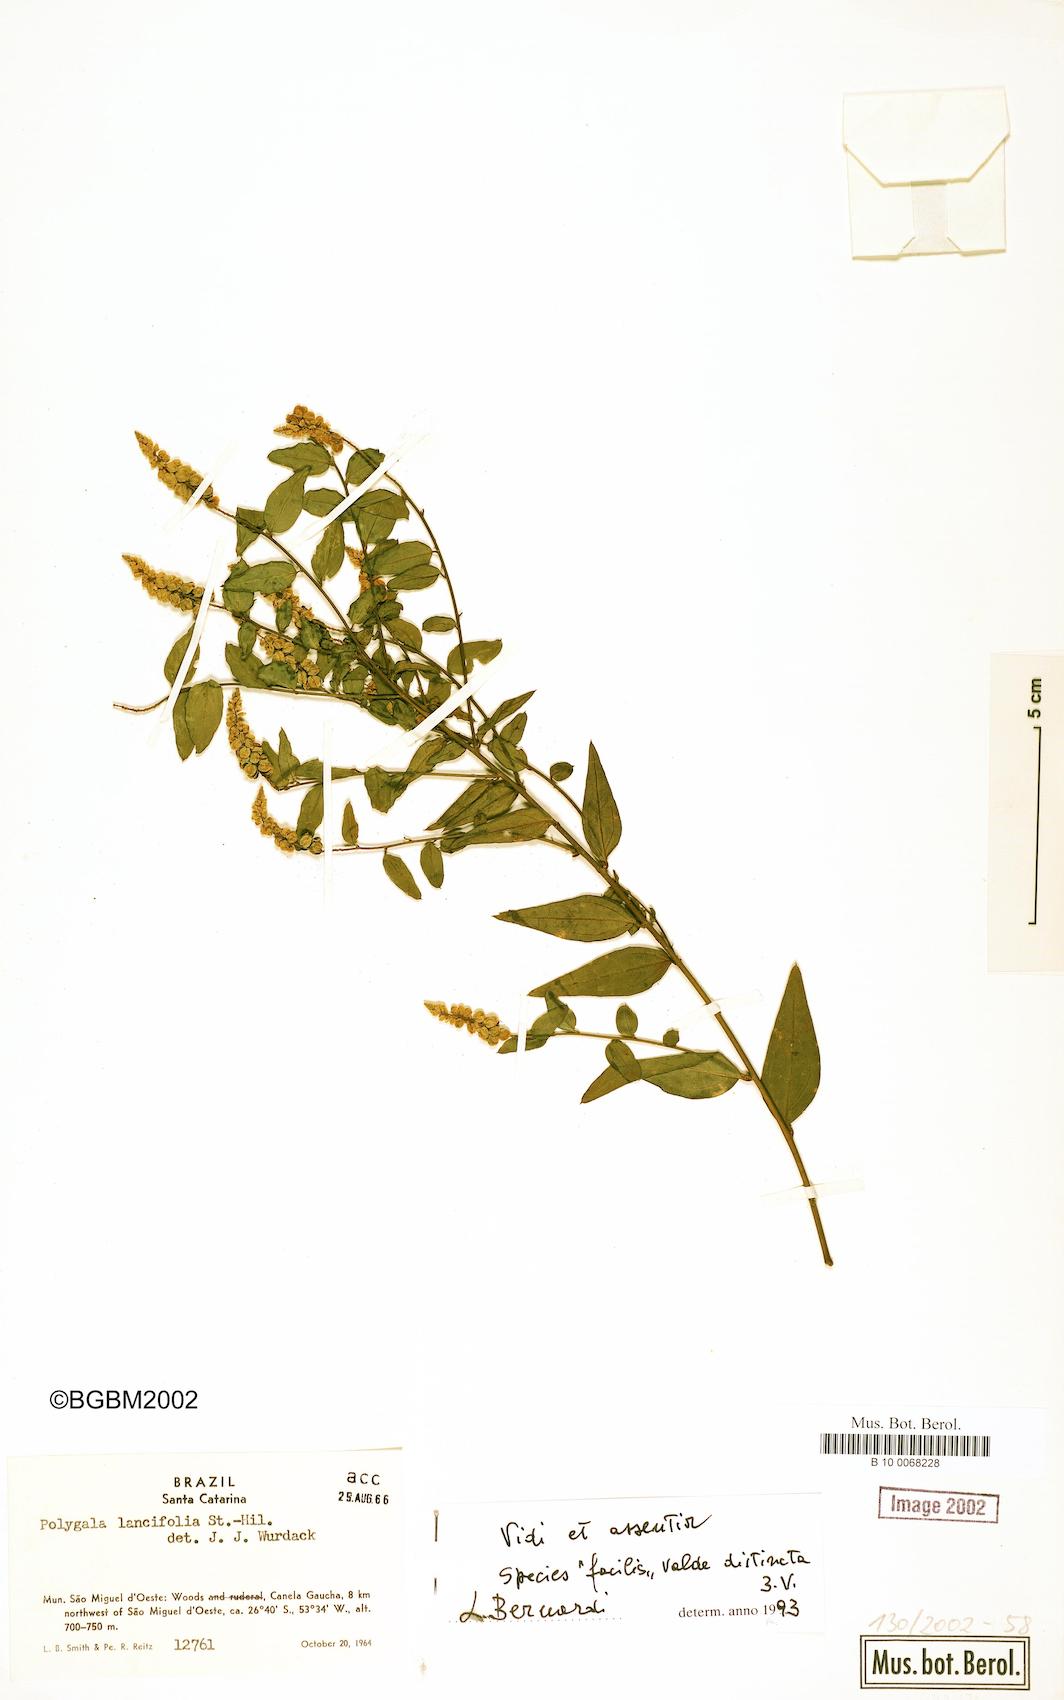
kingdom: Plantae
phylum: Tracheophyta
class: Magnoliopsida
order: Fabales
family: Polygalaceae
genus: Polygala
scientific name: Polygala lancifolia
